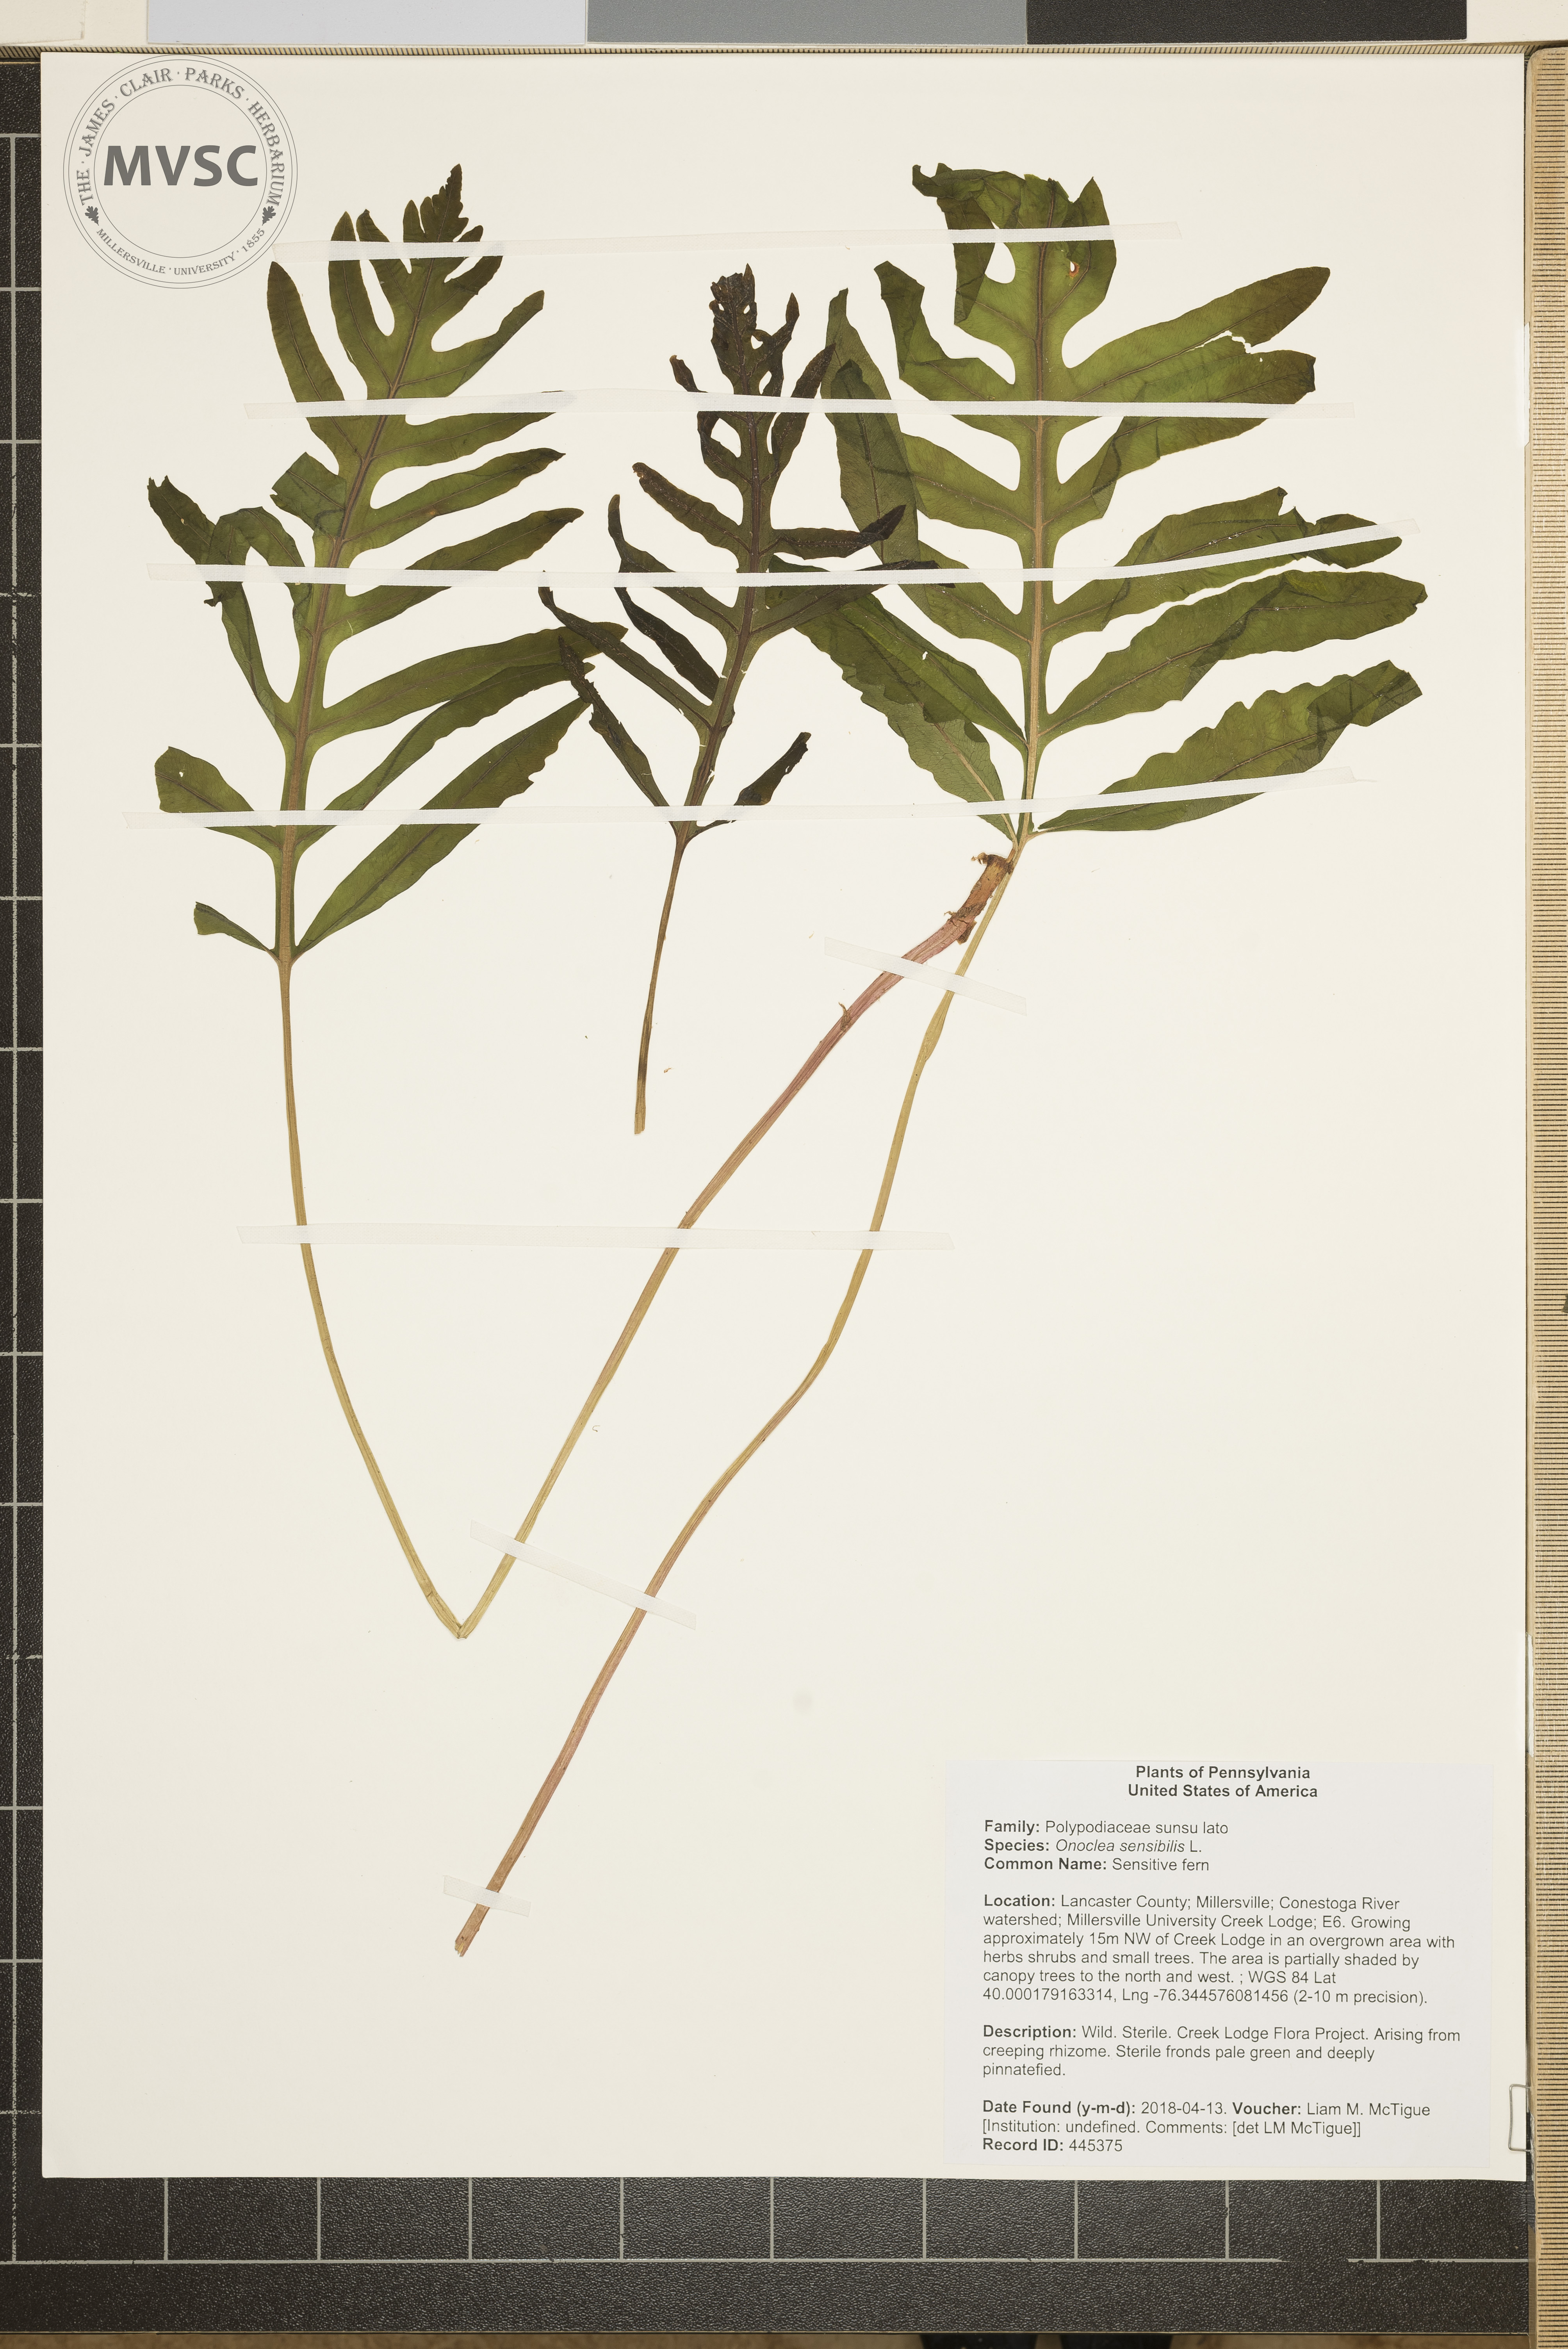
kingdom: Plantae
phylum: Tracheophyta
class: Polypodiopsida
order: Polypodiales
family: Onocleaceae
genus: Onoclea
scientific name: Onoclea sensibilis
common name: Sensitive fern
